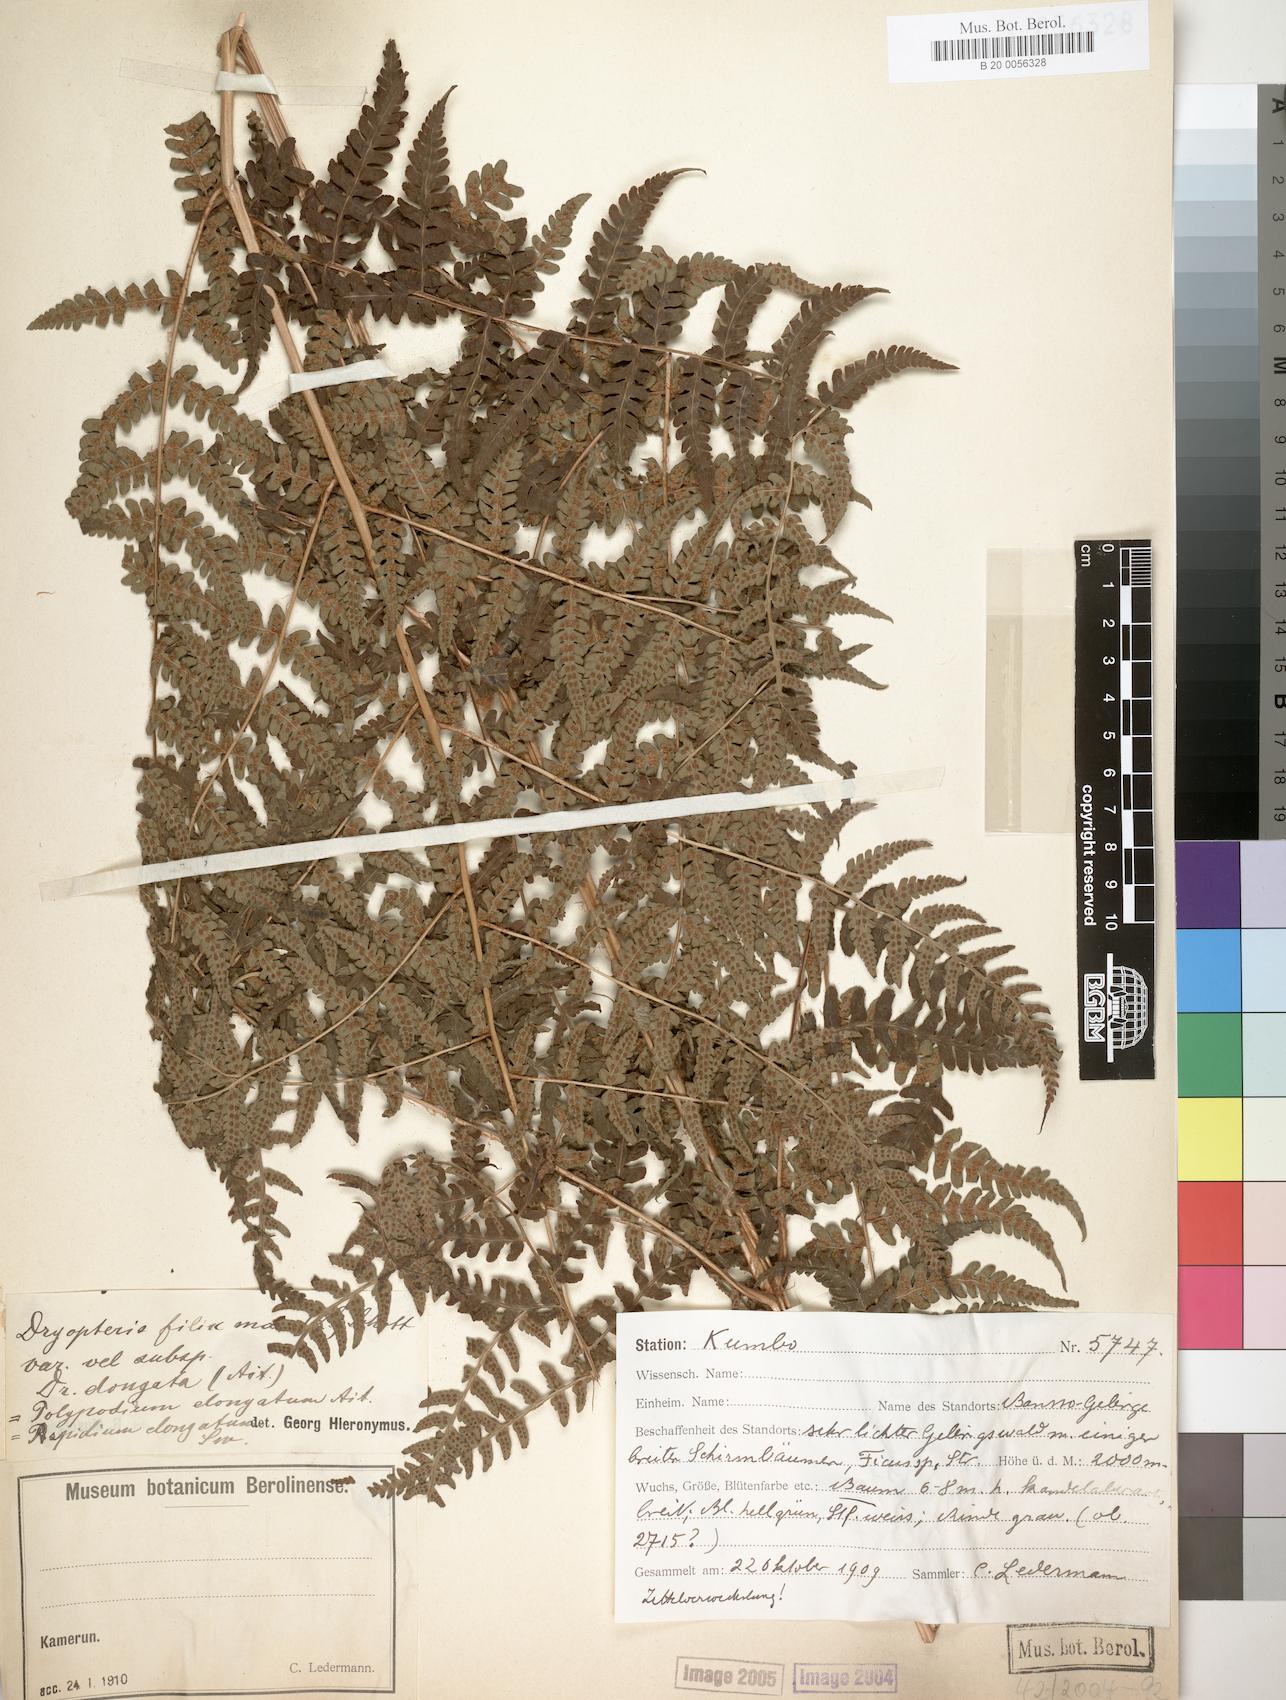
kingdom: Plantae
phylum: Tracheophyta
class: Polypodiopsida
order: Polypodiales
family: Dryopteridaceae
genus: Dryopteris
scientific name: Dryopteris filix-mas
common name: Male fern
